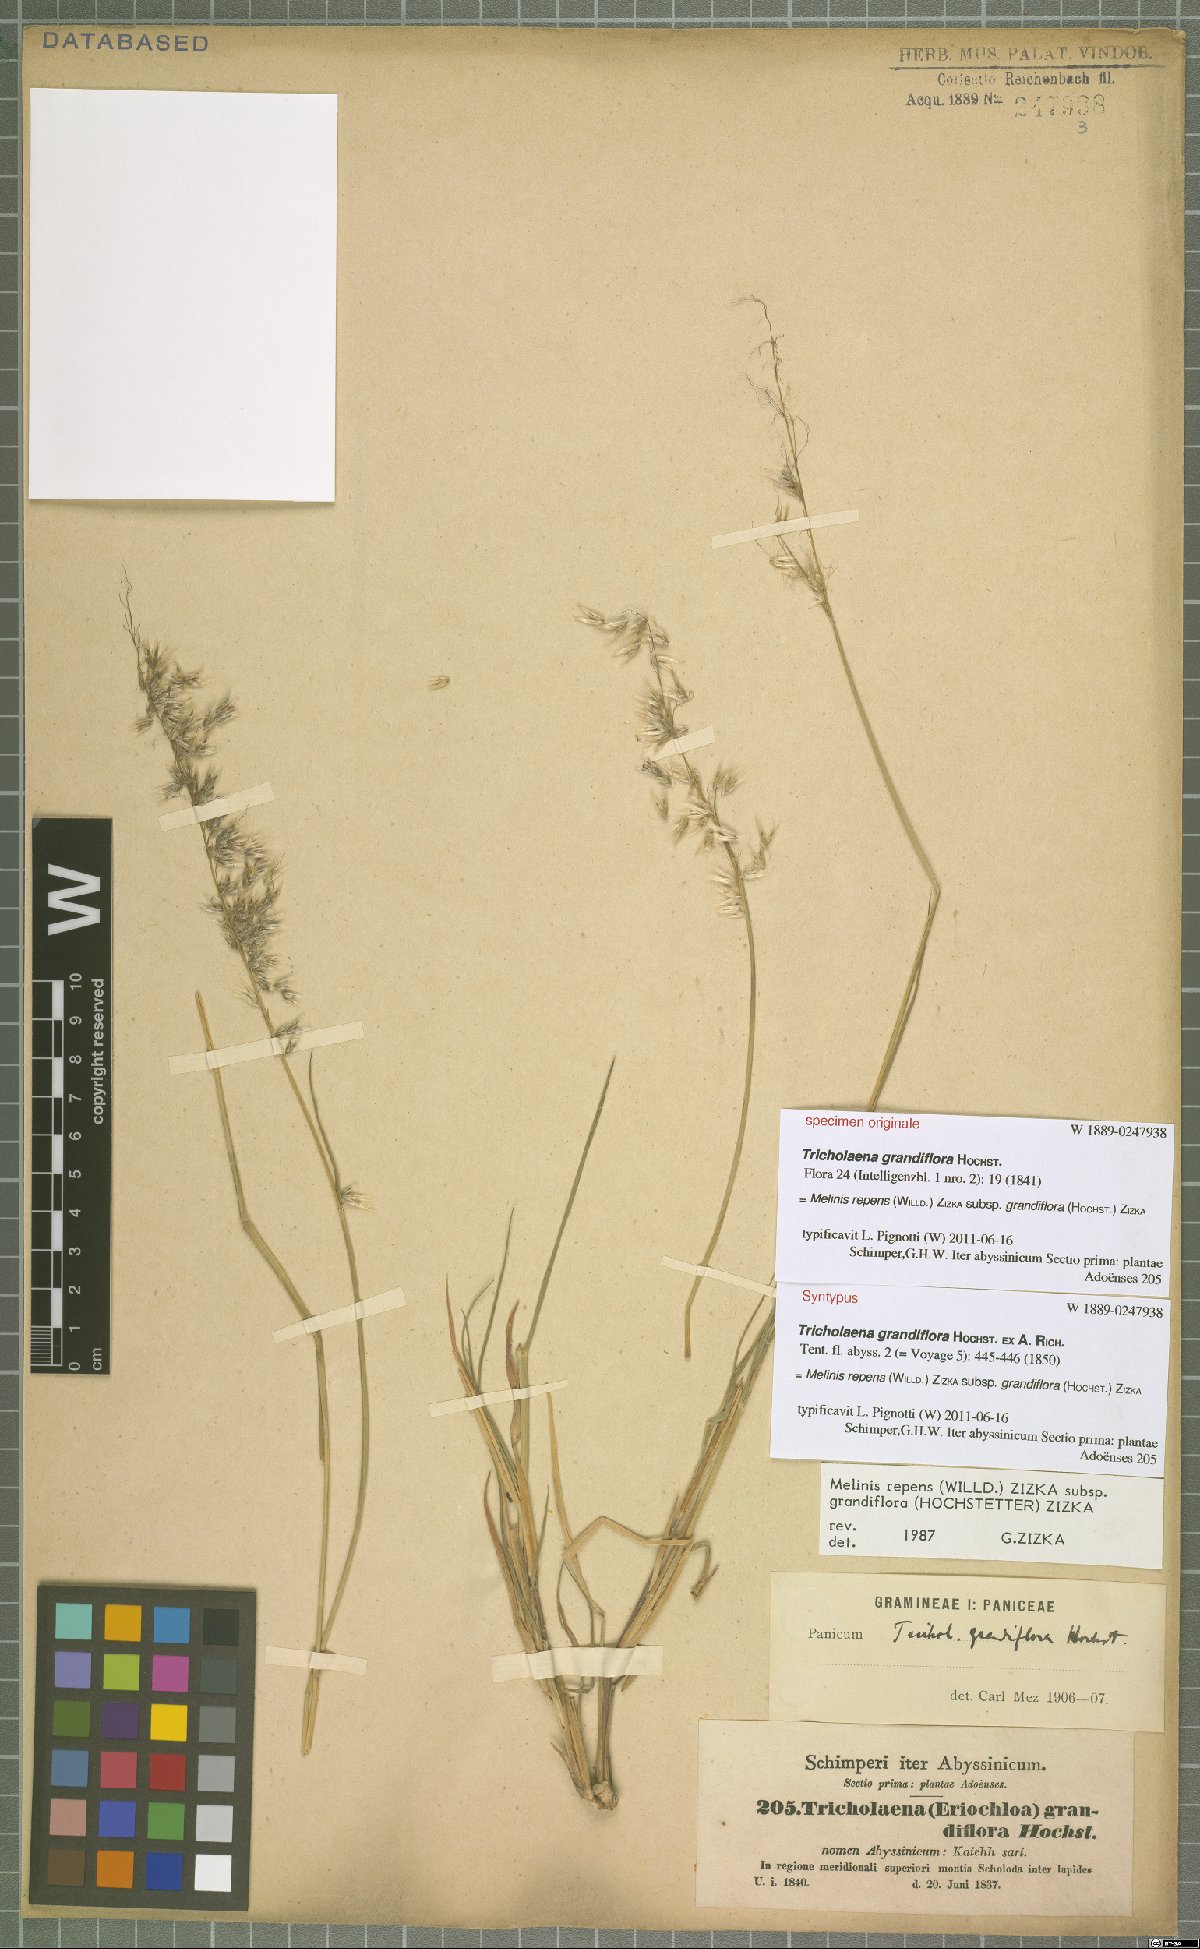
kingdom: Plantae
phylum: Tracheophyta
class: Liliopsida
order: Poales
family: Poaceae
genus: Melinis
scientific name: Melinis repens
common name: Rose natal grass
